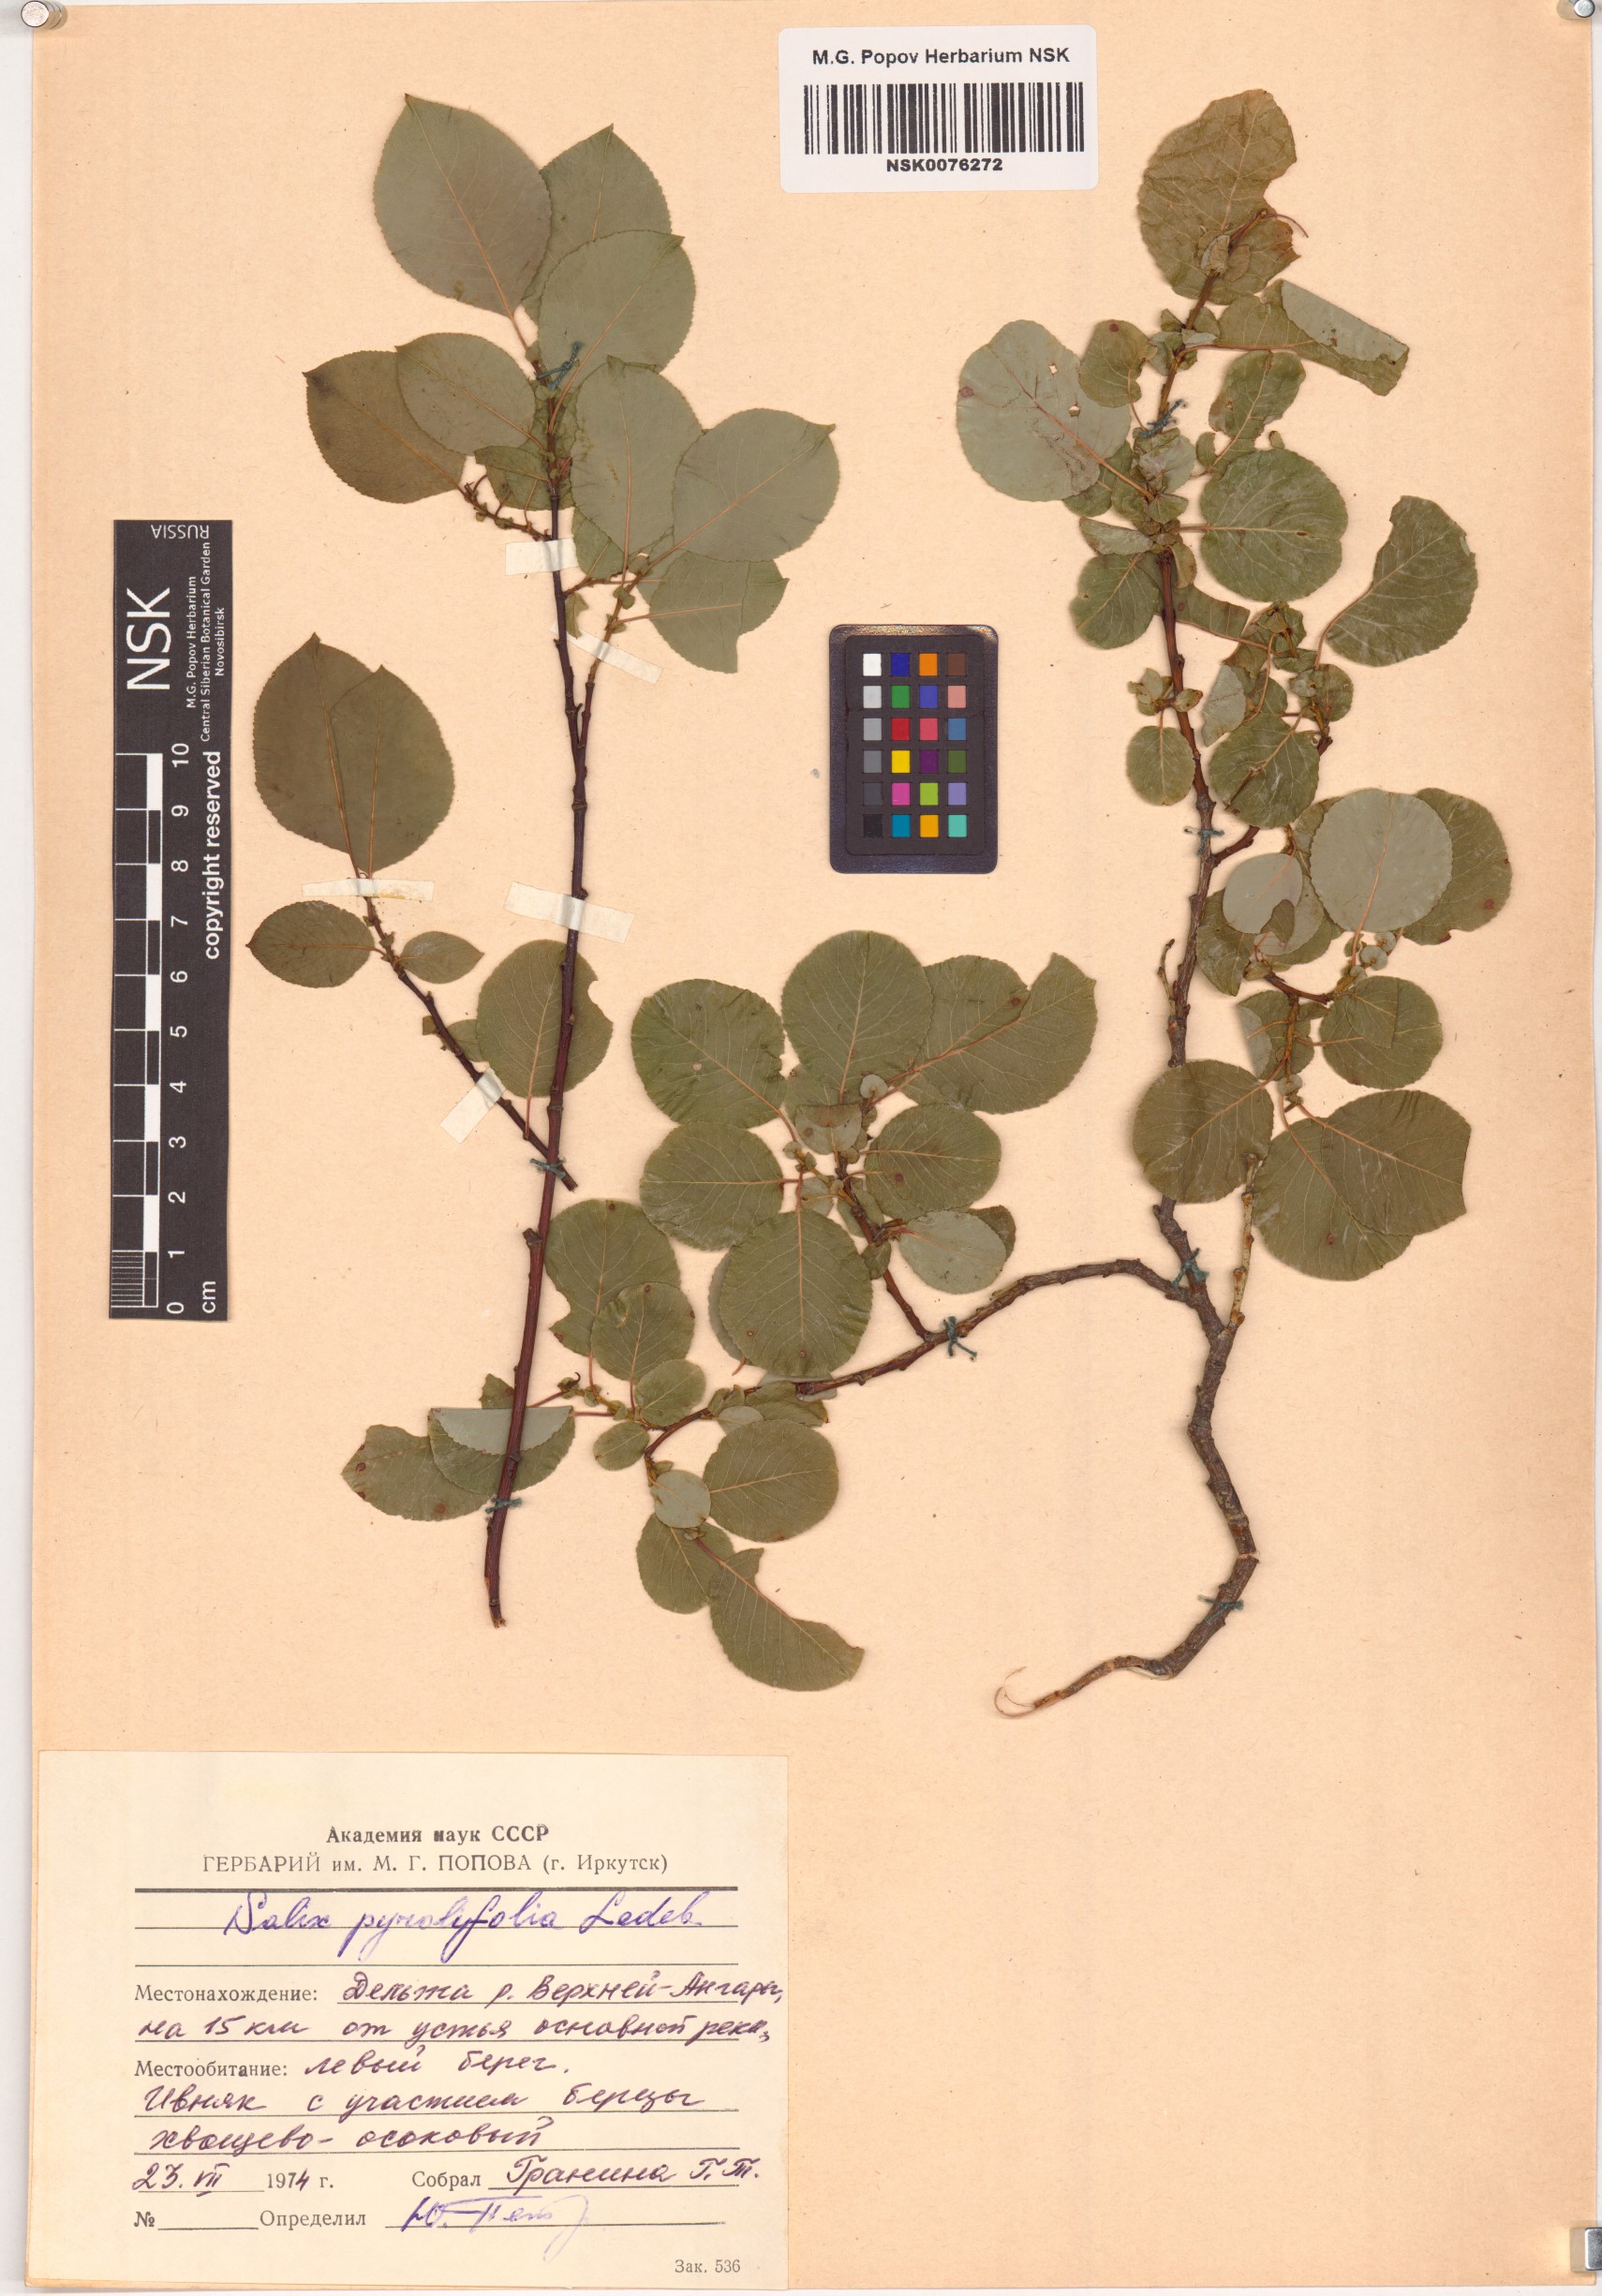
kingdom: Plantae
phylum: Tracheophyta
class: Magnoliopsida
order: Malpighiales
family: Salicaceae
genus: Salix
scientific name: Salix pyrolifolia
